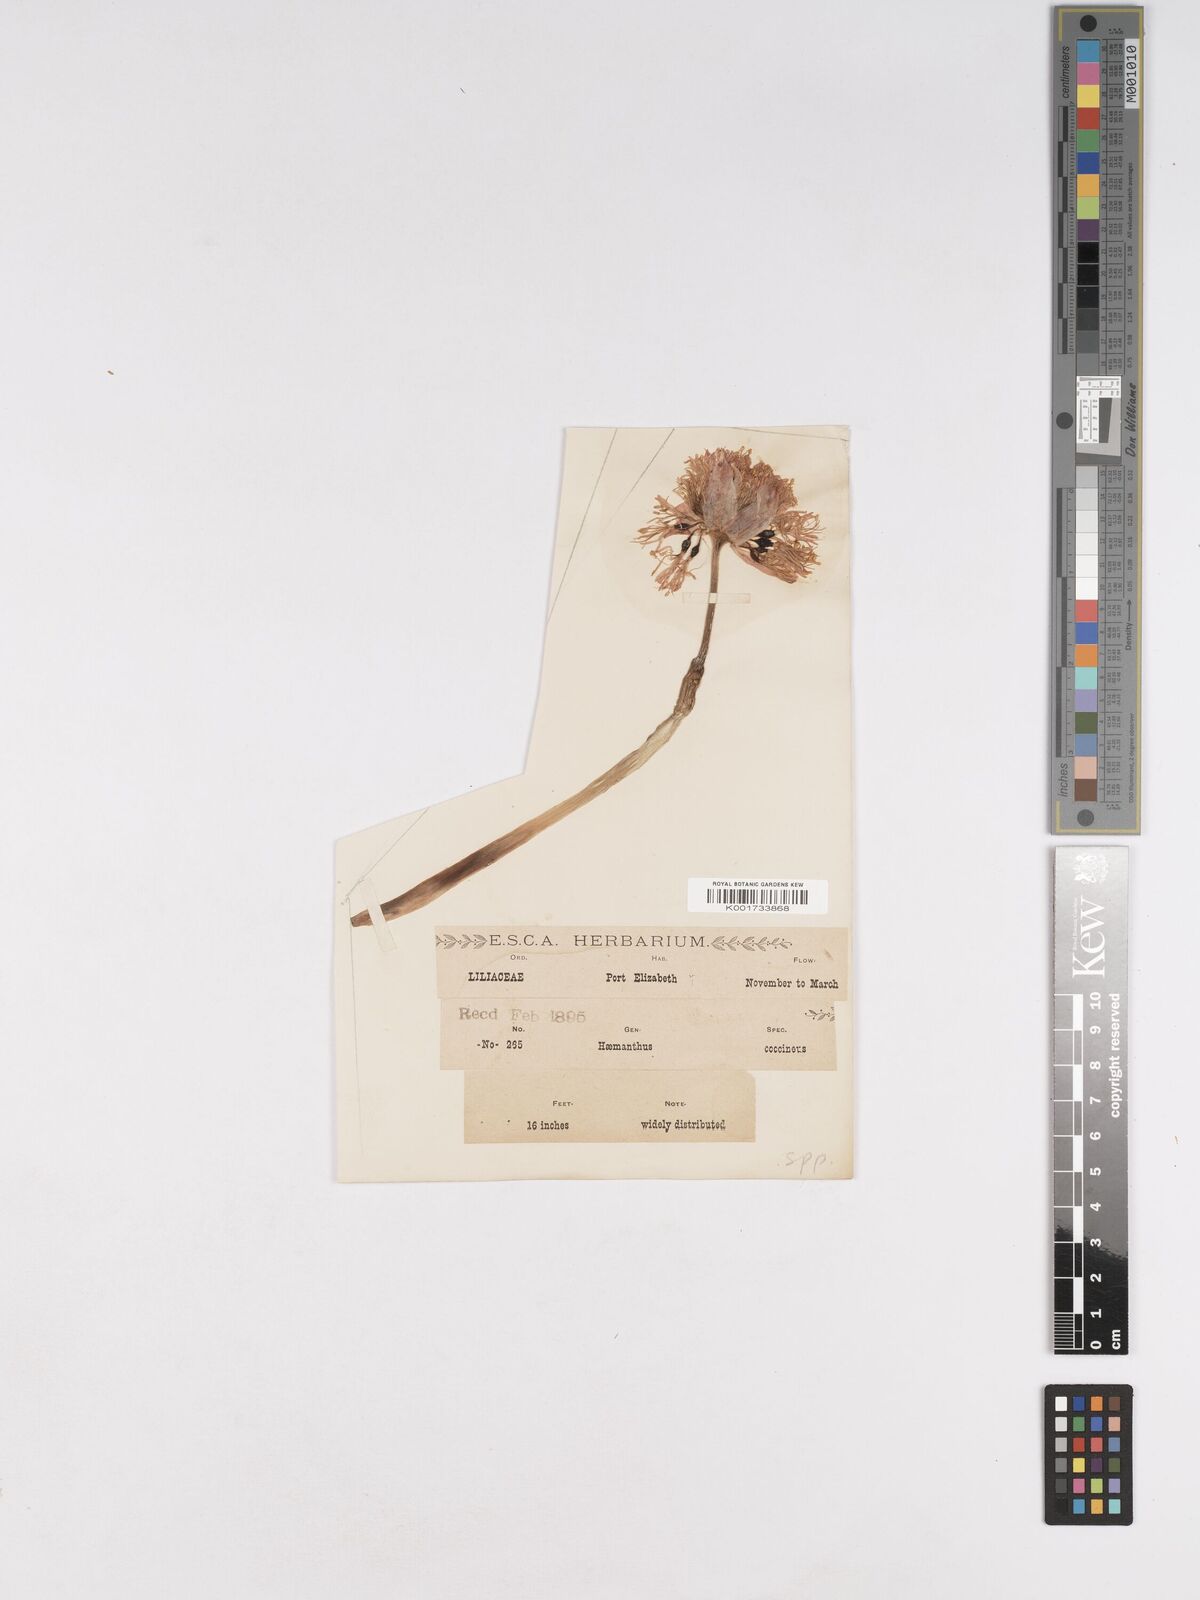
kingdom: Plantae
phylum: Tracheophyta
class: Liliopsida
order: Asparagales
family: Amaryllidaceae
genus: Haemanthus
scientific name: Haemanthus coccineus
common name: Cape-tulip
